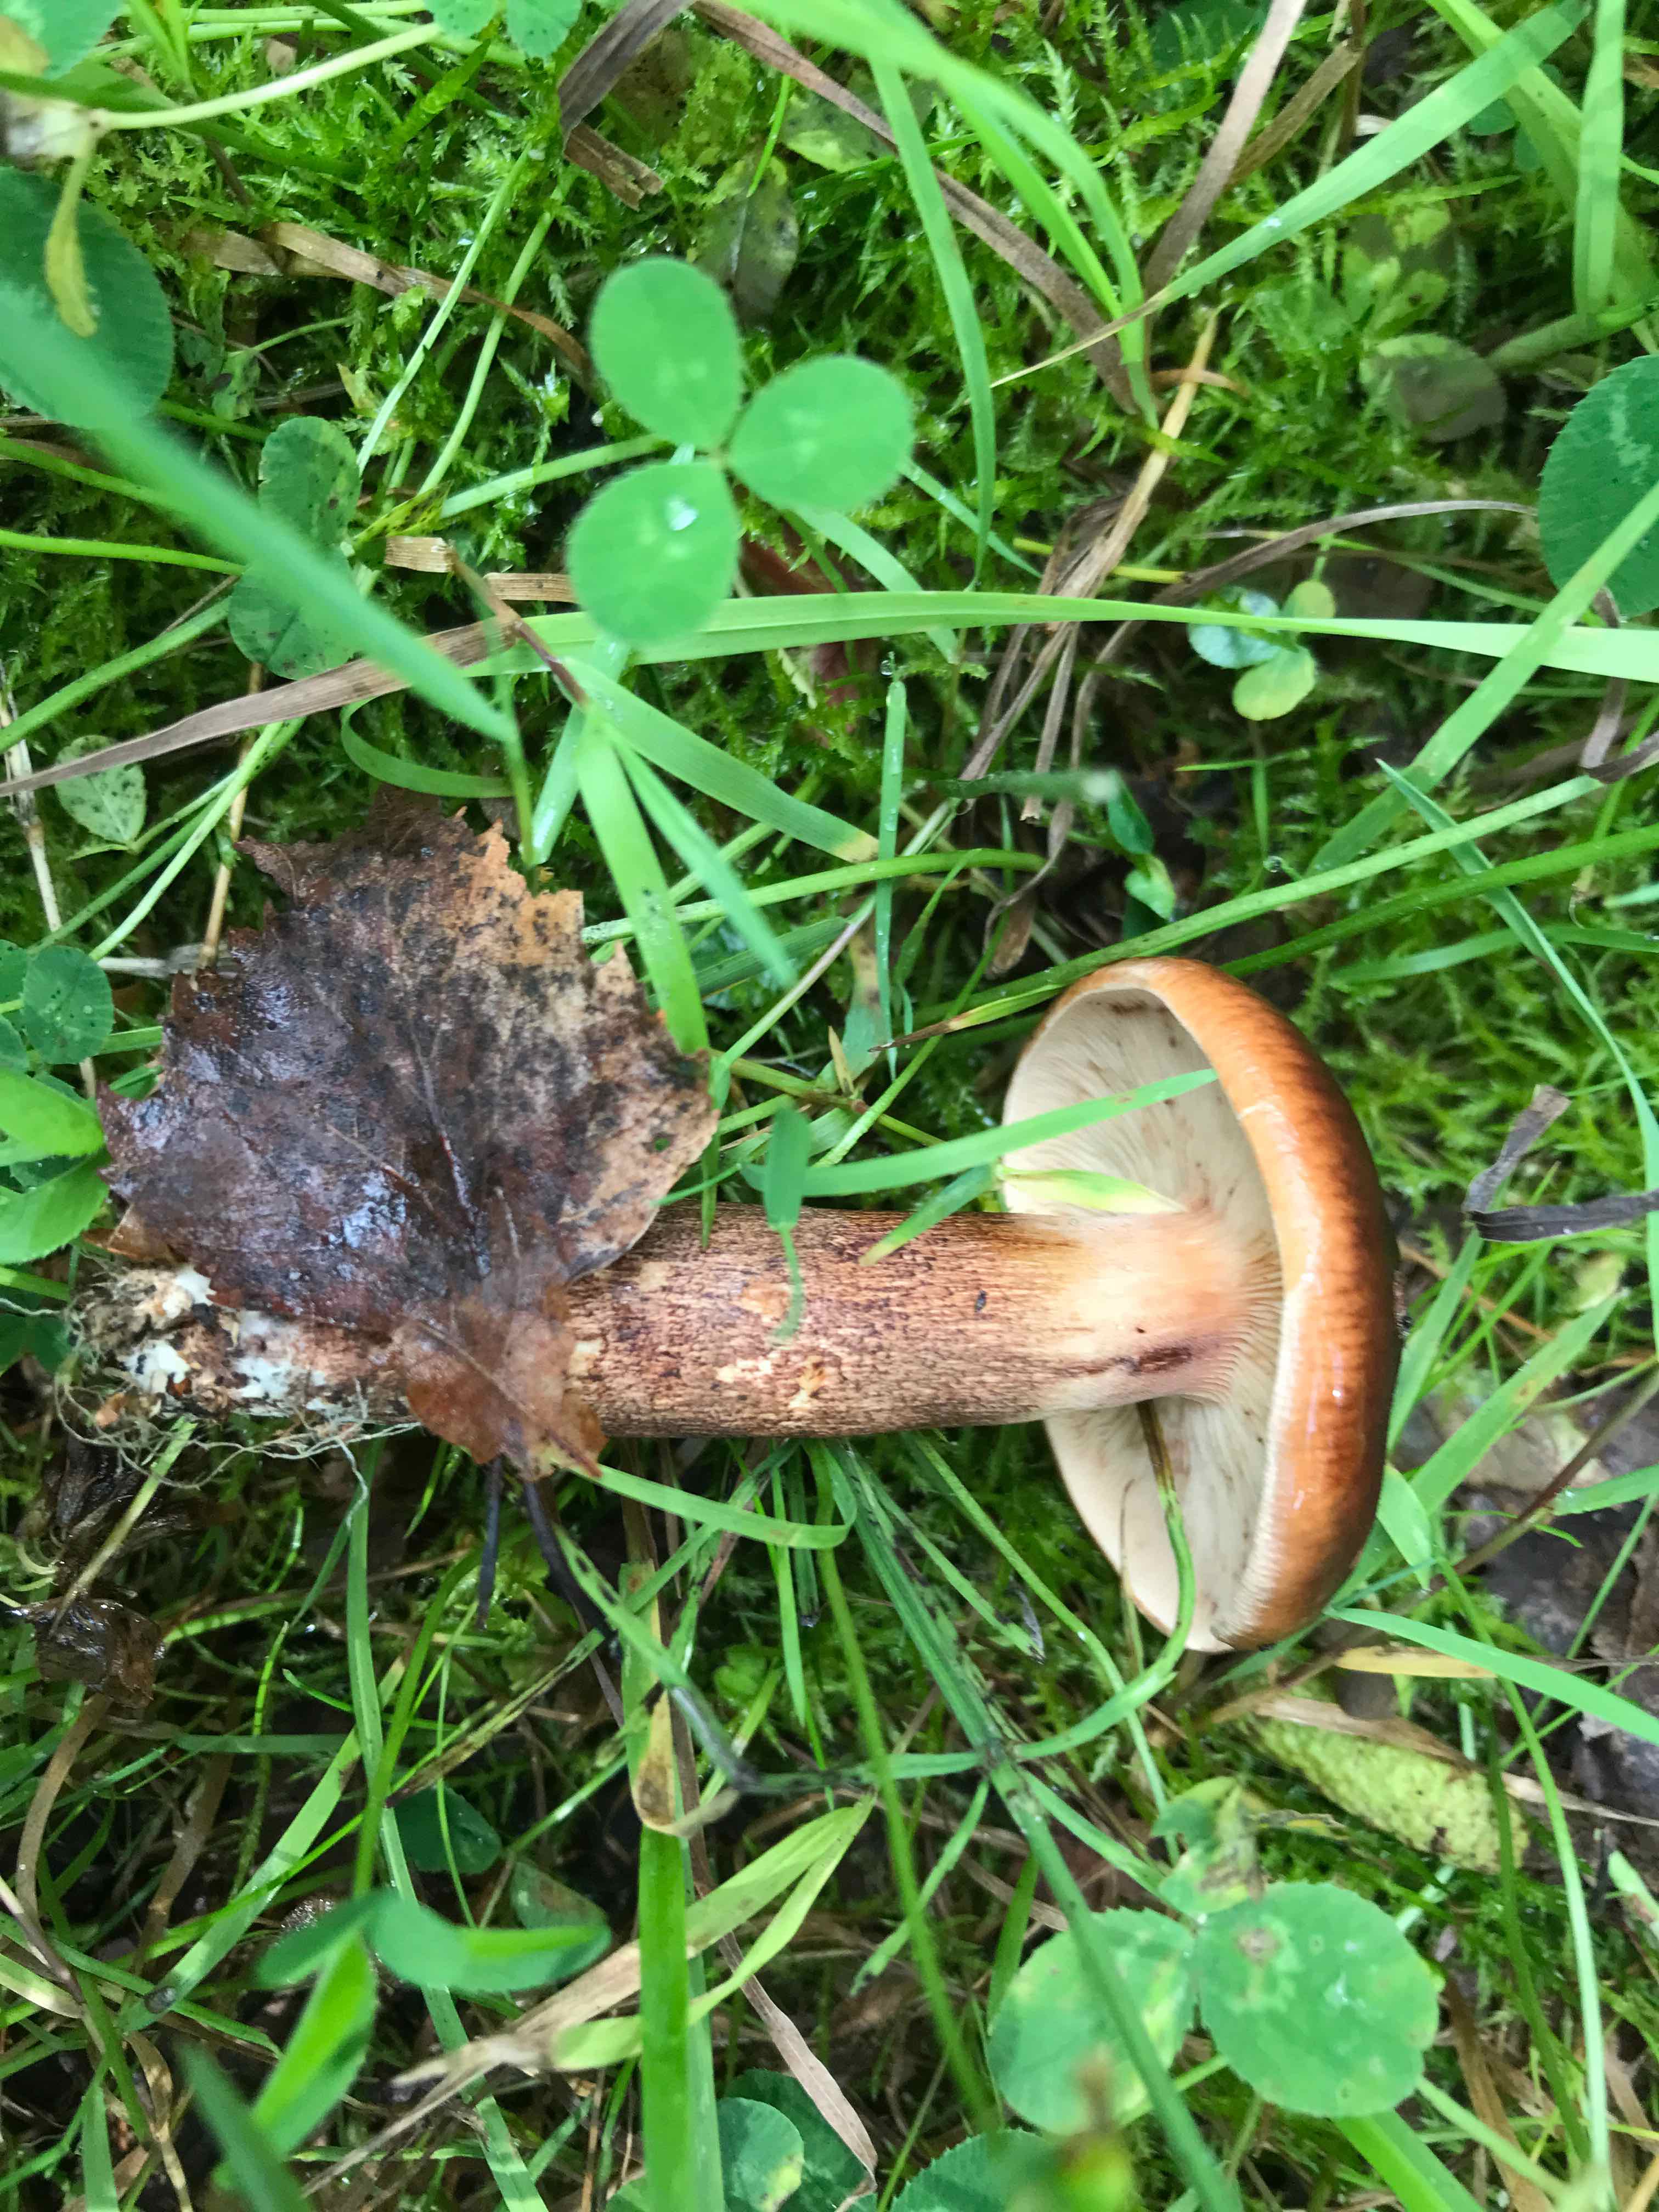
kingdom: Fungi
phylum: Basidiomycota
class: Agaricomycetes
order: Agaricales
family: Tricholomataceae
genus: Tricholoma
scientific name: Tricholoma fulvum
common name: birke-ridderhat
